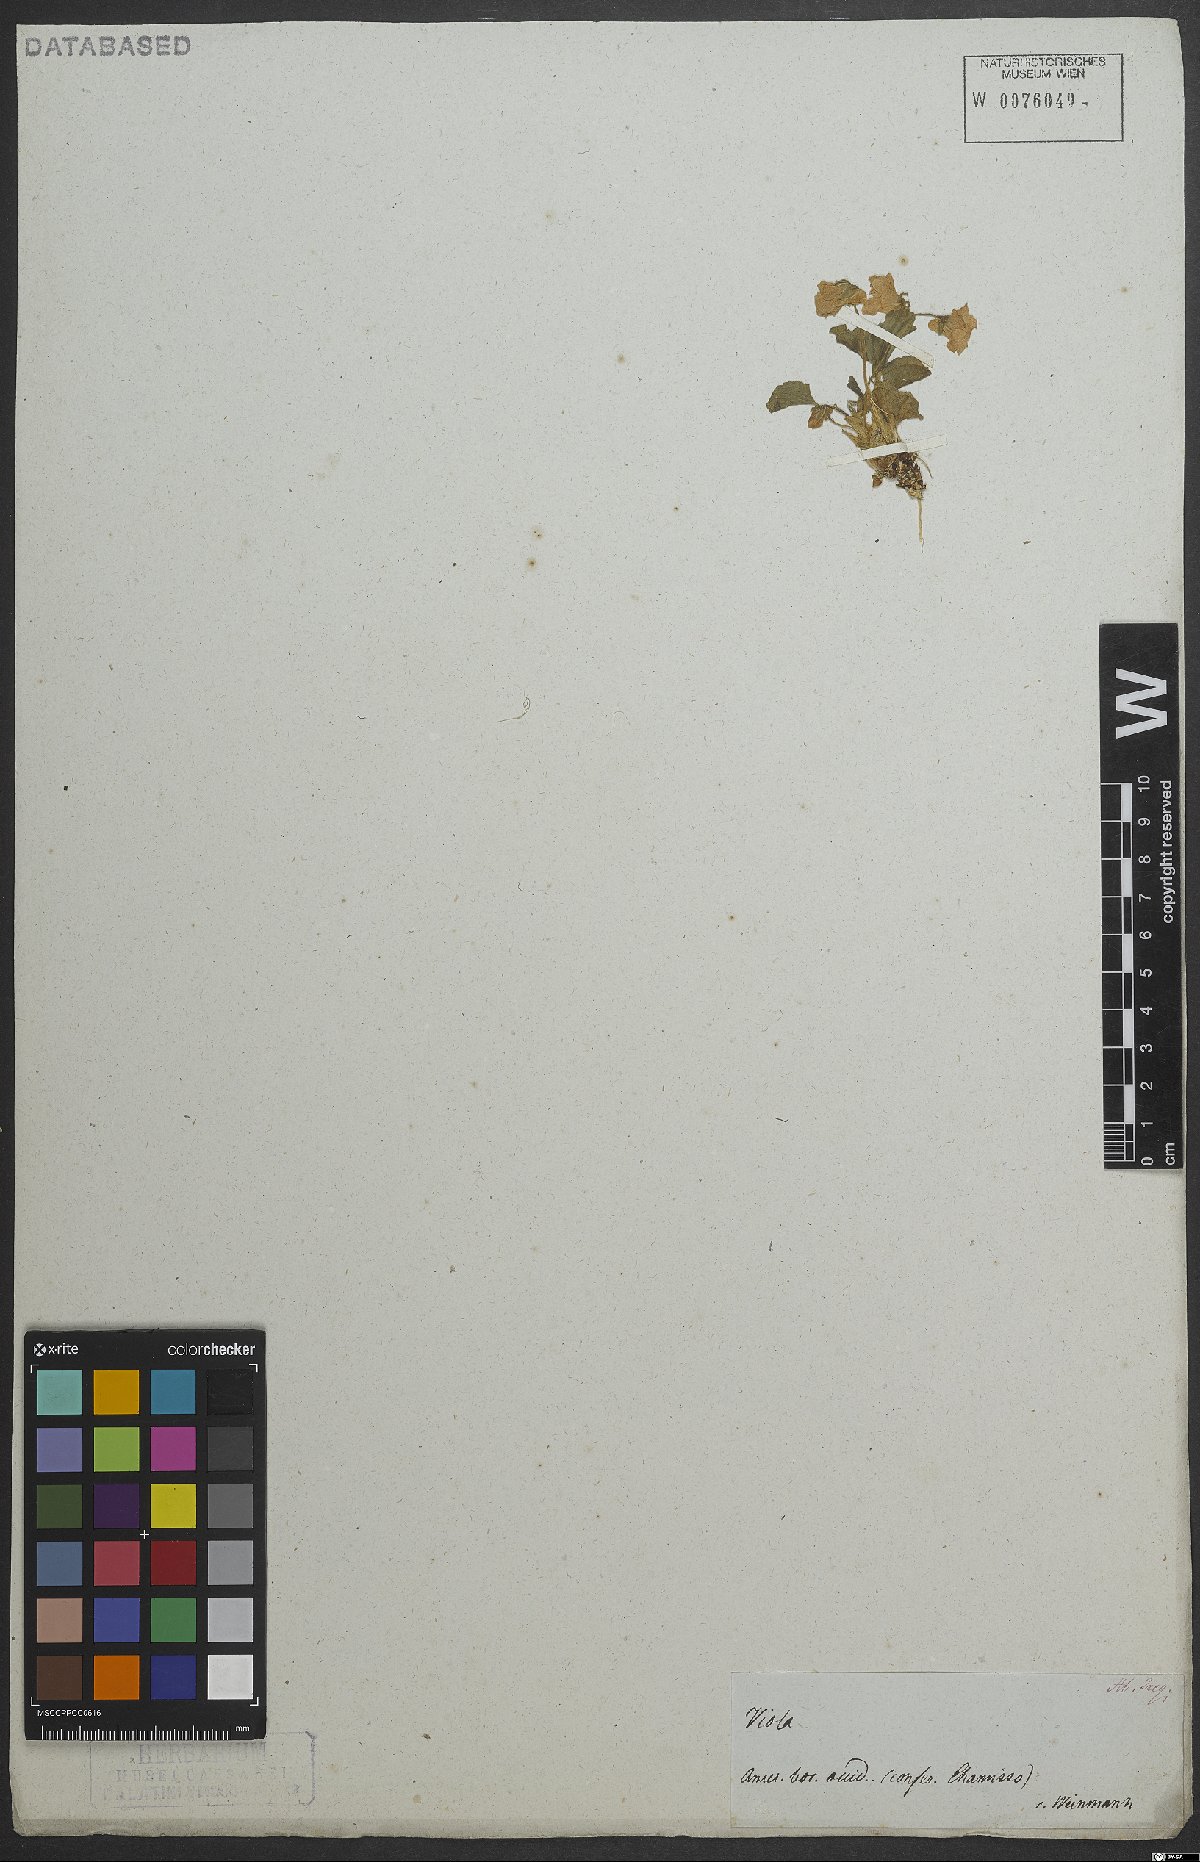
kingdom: Plantae
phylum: Tracheophyta
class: Magnoliopsida
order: Malpighiales
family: Violaceae
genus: Viola
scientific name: Viola
